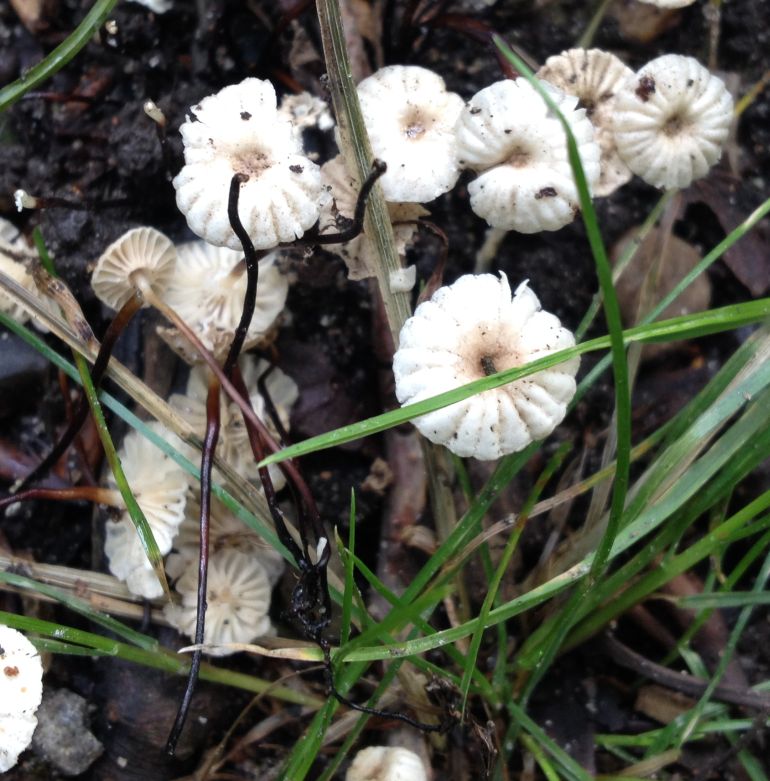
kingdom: Fungi
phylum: Basidiomycota
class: Agaricomycetes
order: Agaricales
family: Marasmiaceae
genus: Marasmius
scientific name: Marasmius rotula
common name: hjul-bruskhat
